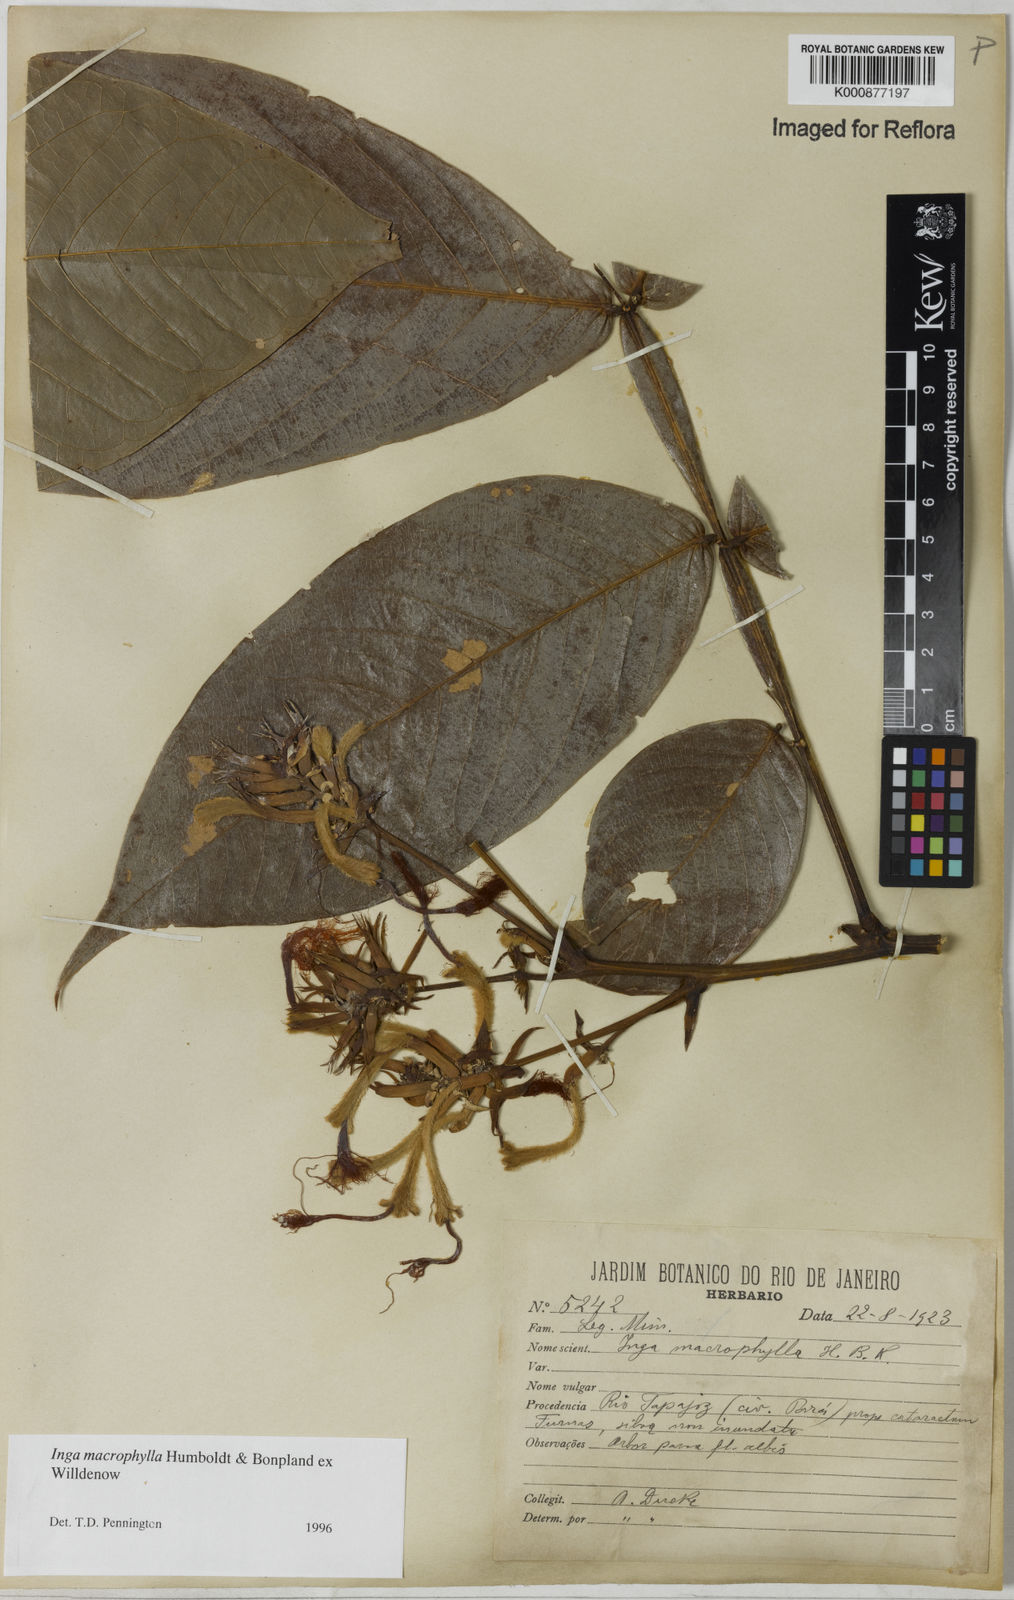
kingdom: Plantae
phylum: Tracheophyta
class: Magnoliopsida
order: Fabales
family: Fabaceae
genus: Inga
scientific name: Inga macrophylla
